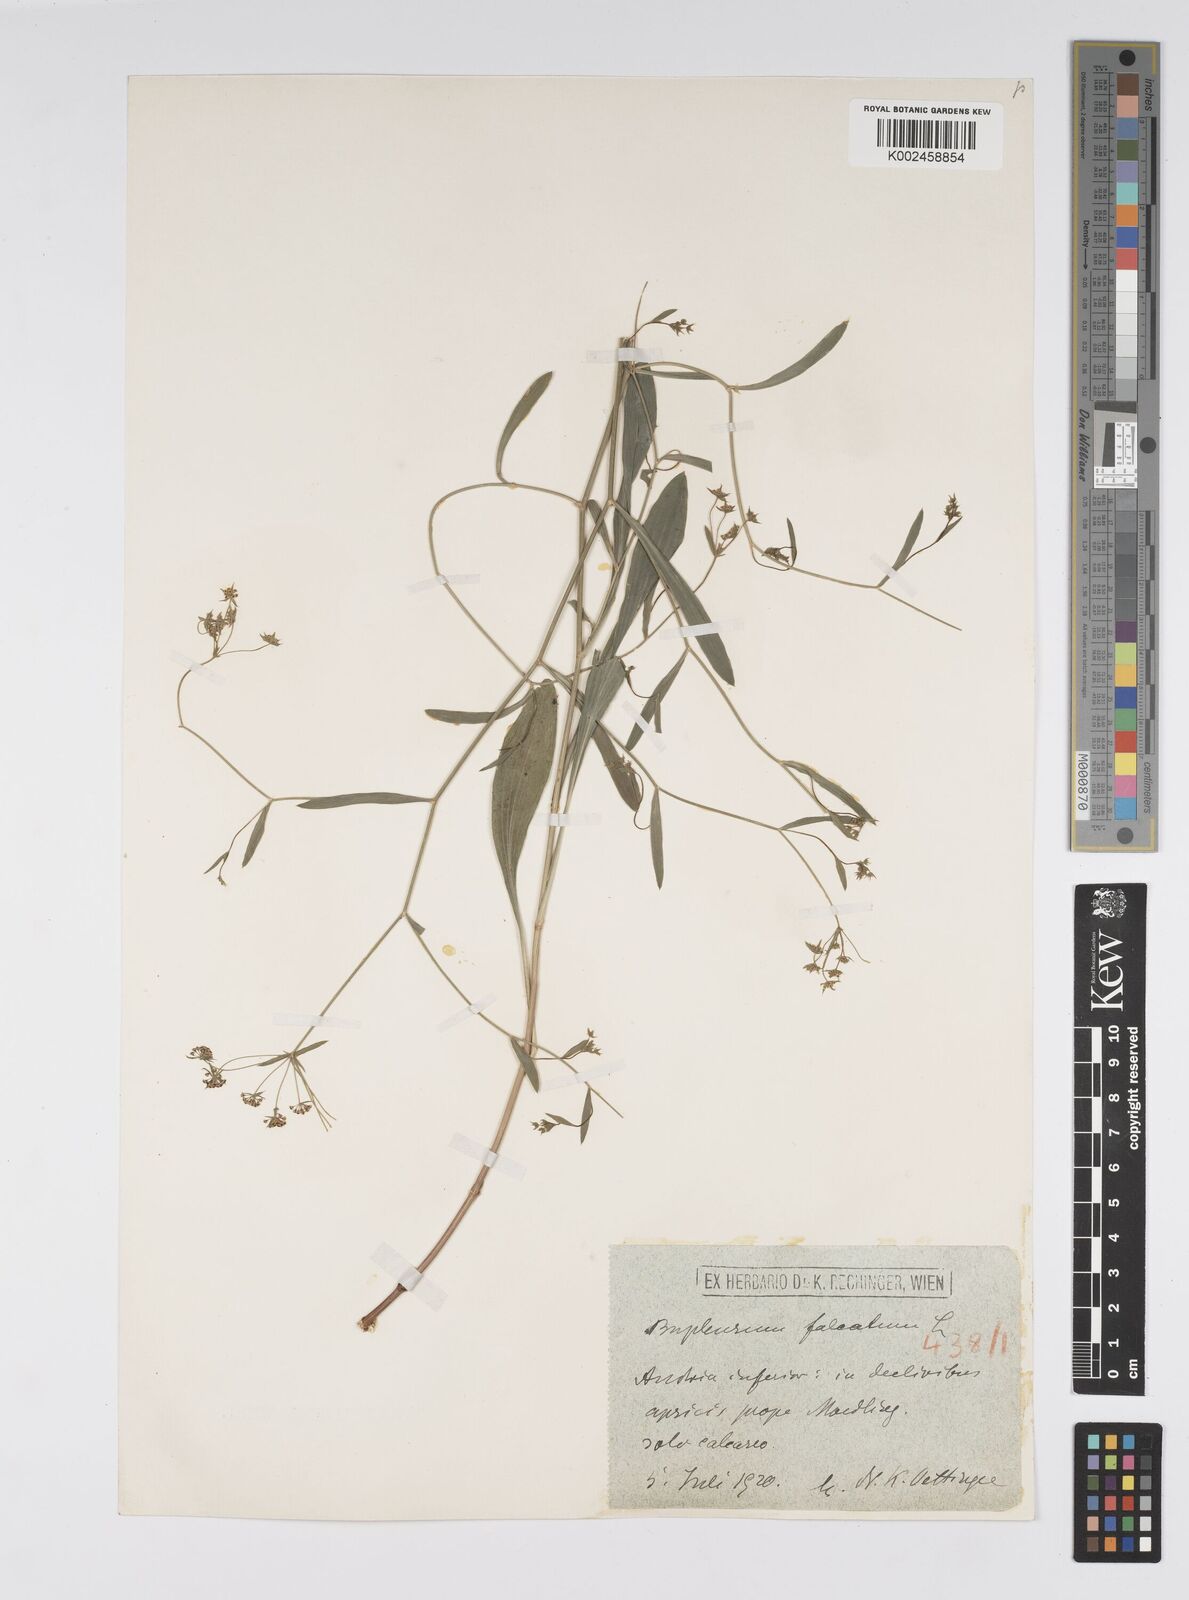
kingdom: Plantae
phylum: Tracheophyta
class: Magnoliopsida
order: Apiales
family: Apiaceae
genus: Bupleurum
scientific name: Bupleurum falcatum
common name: Sickle-leaved hare's-ear
